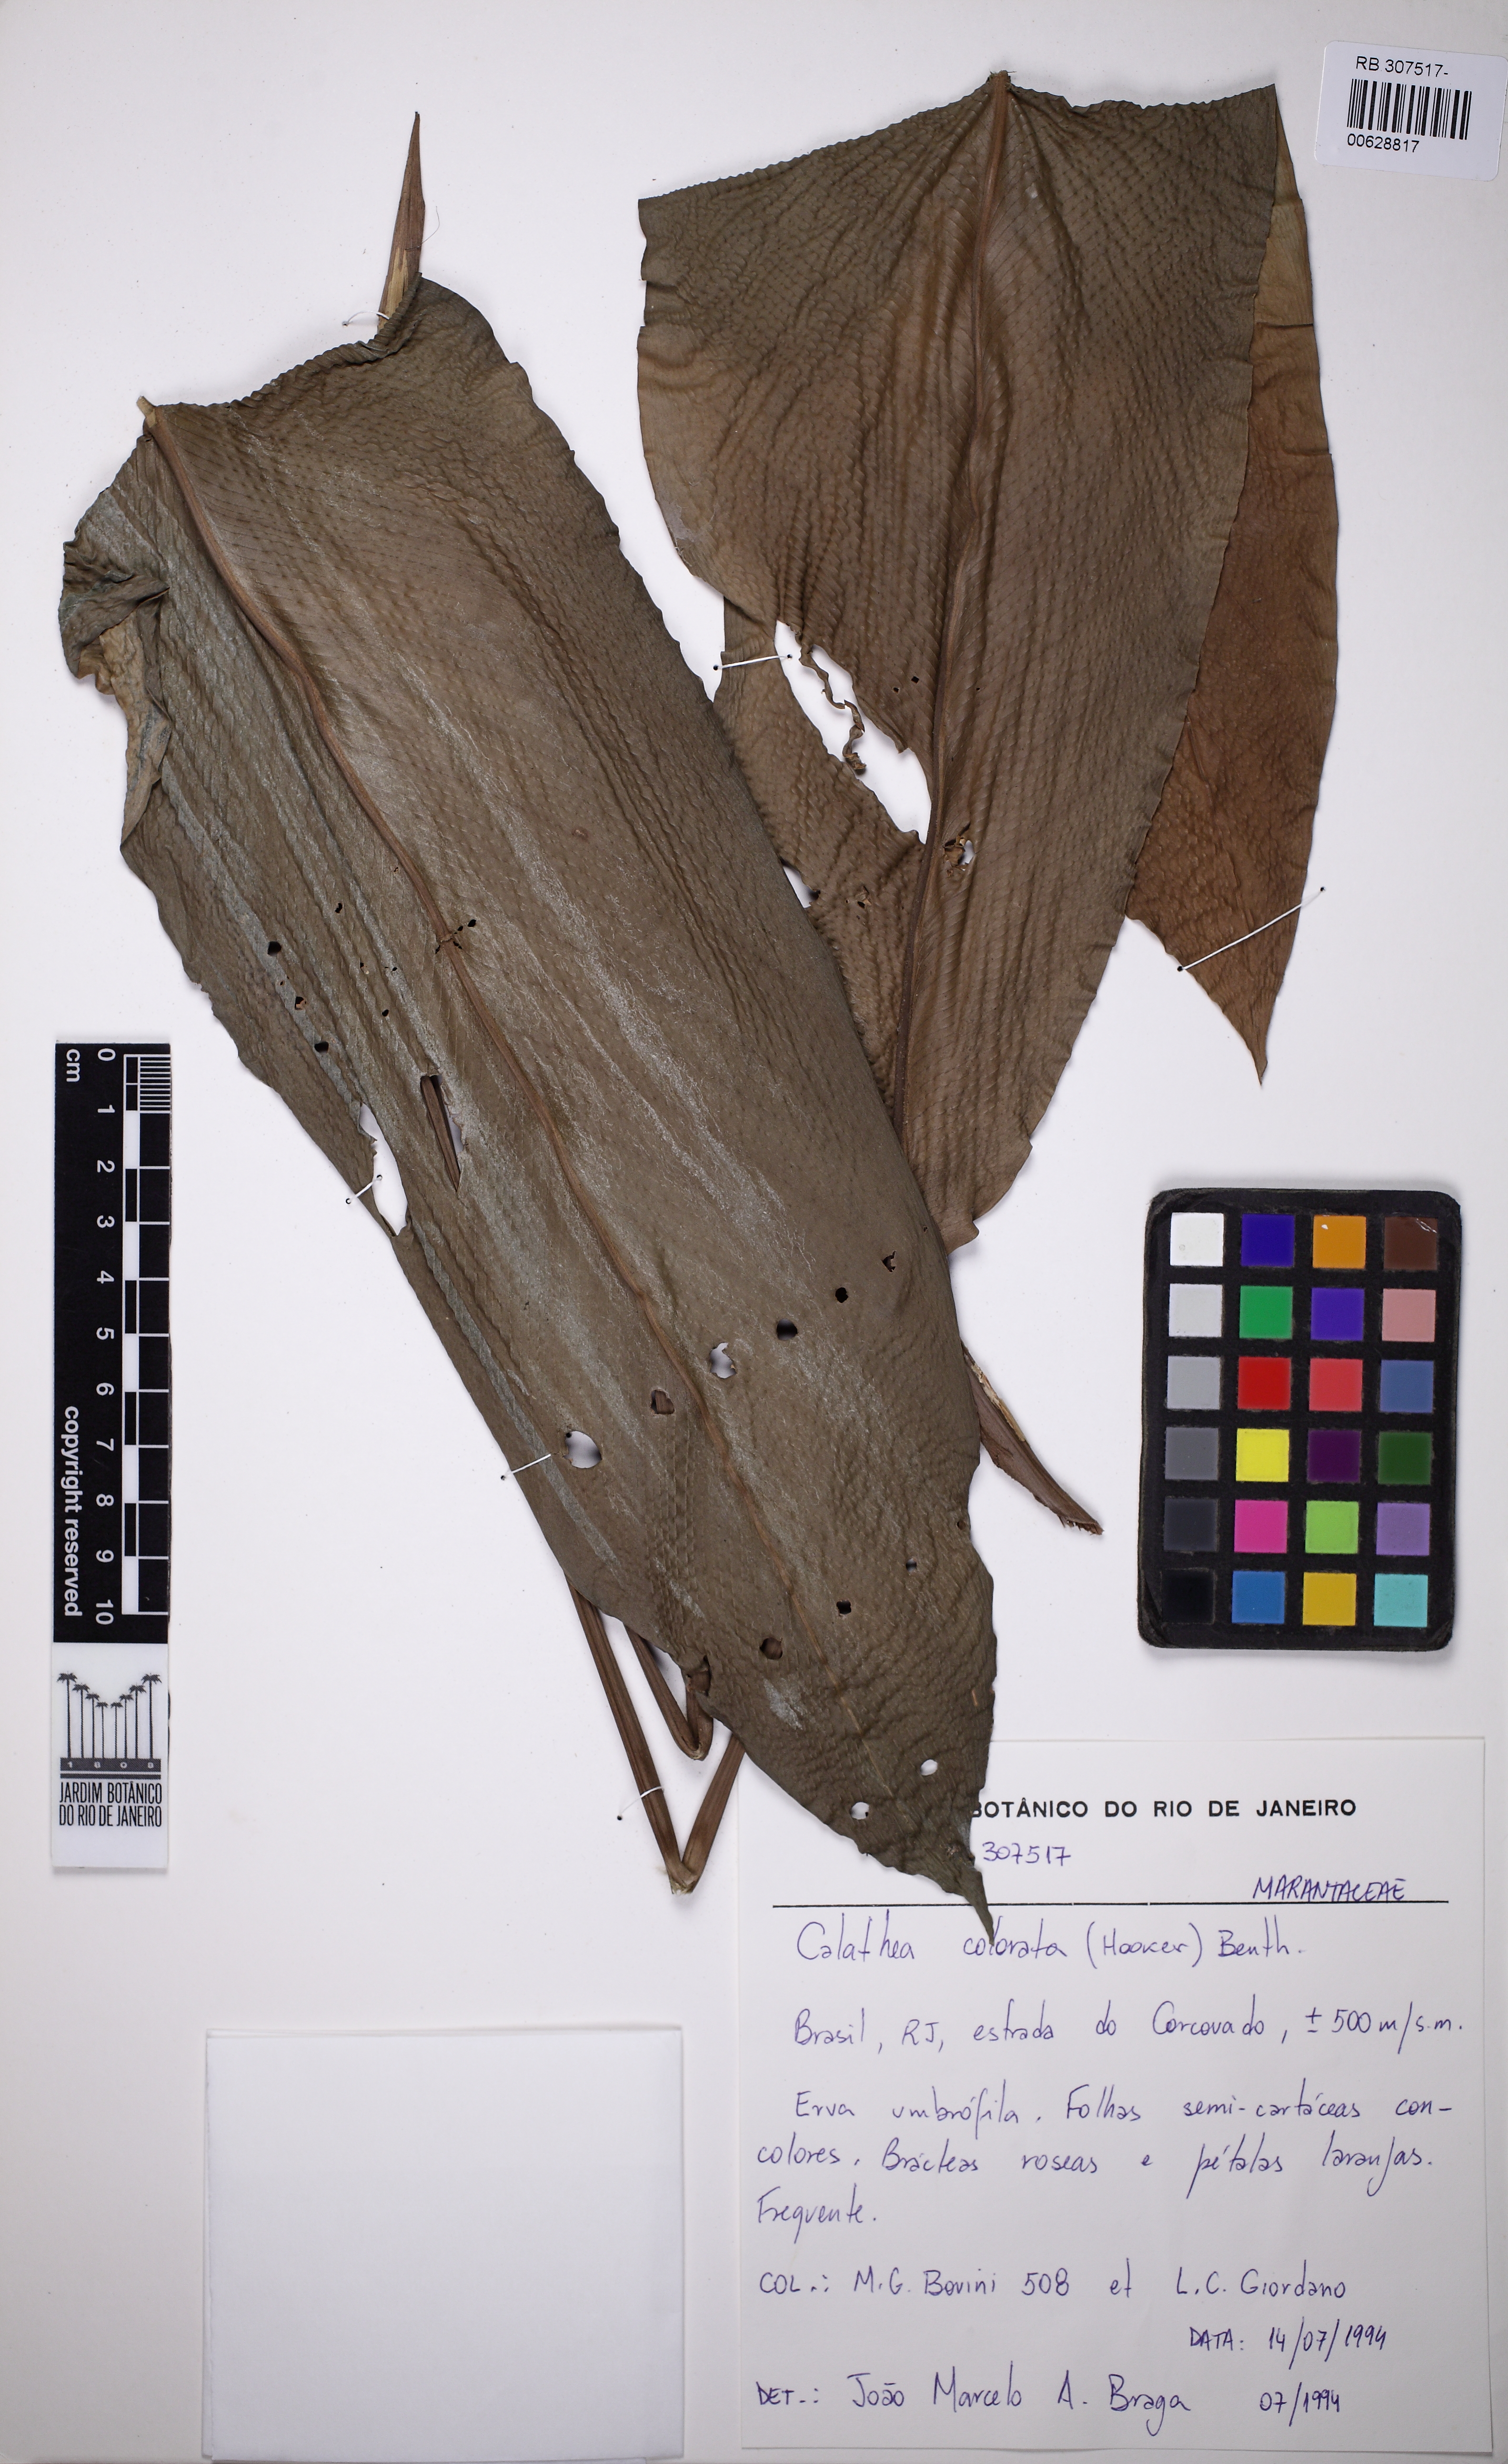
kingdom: Plantae
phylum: Tracheophyta
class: Liliopsida
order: Zingiberales
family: Marantaceae
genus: Goeppertia
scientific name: Goeppertia colorata
